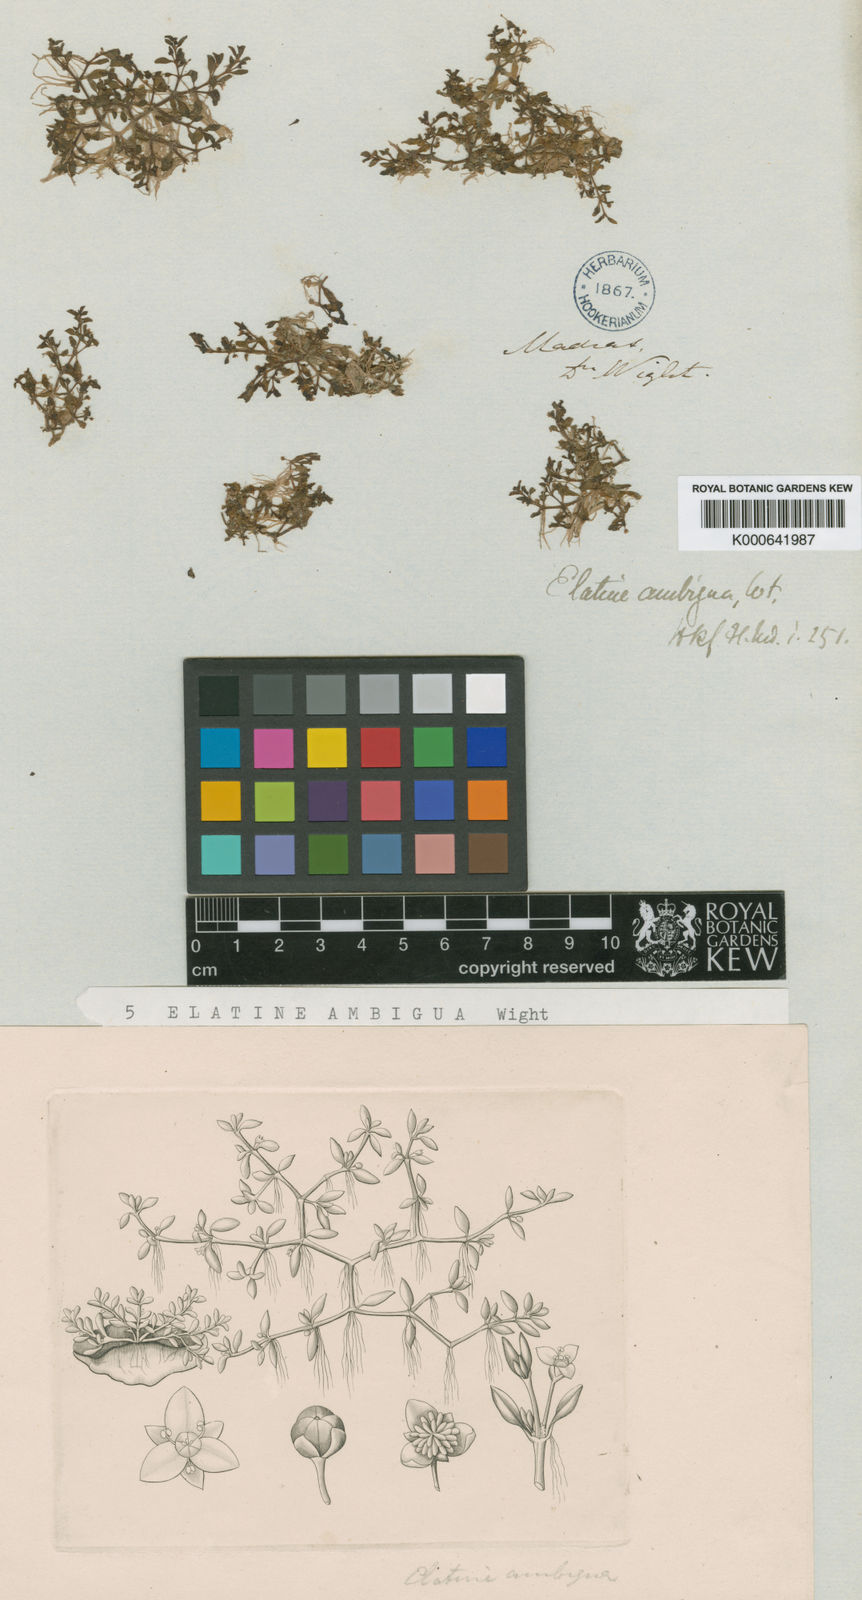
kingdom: Plantae
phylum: Tracheophyta
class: Magnoliopsida
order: Malpighiales
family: Elatinaceae
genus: Elatine
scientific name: Elatine ambigua
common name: Asian waterwort
